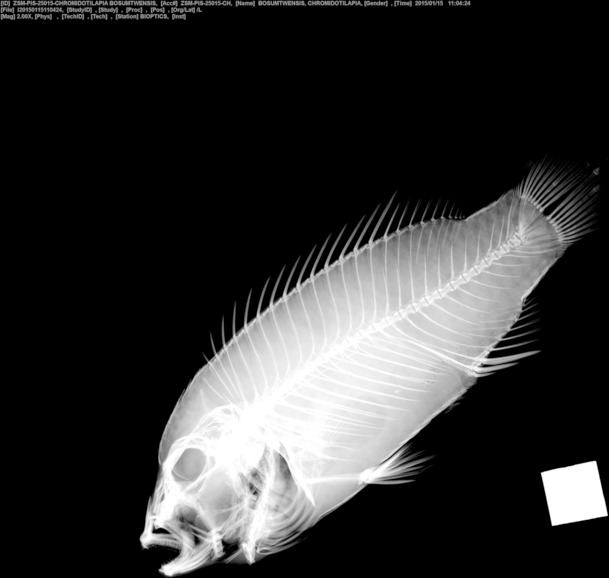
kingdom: Animalia
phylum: Chordata
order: Perciformes
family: Cichlidae
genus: Chromidotilapia
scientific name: Chromidotilapia guntheri
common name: Cichlid
